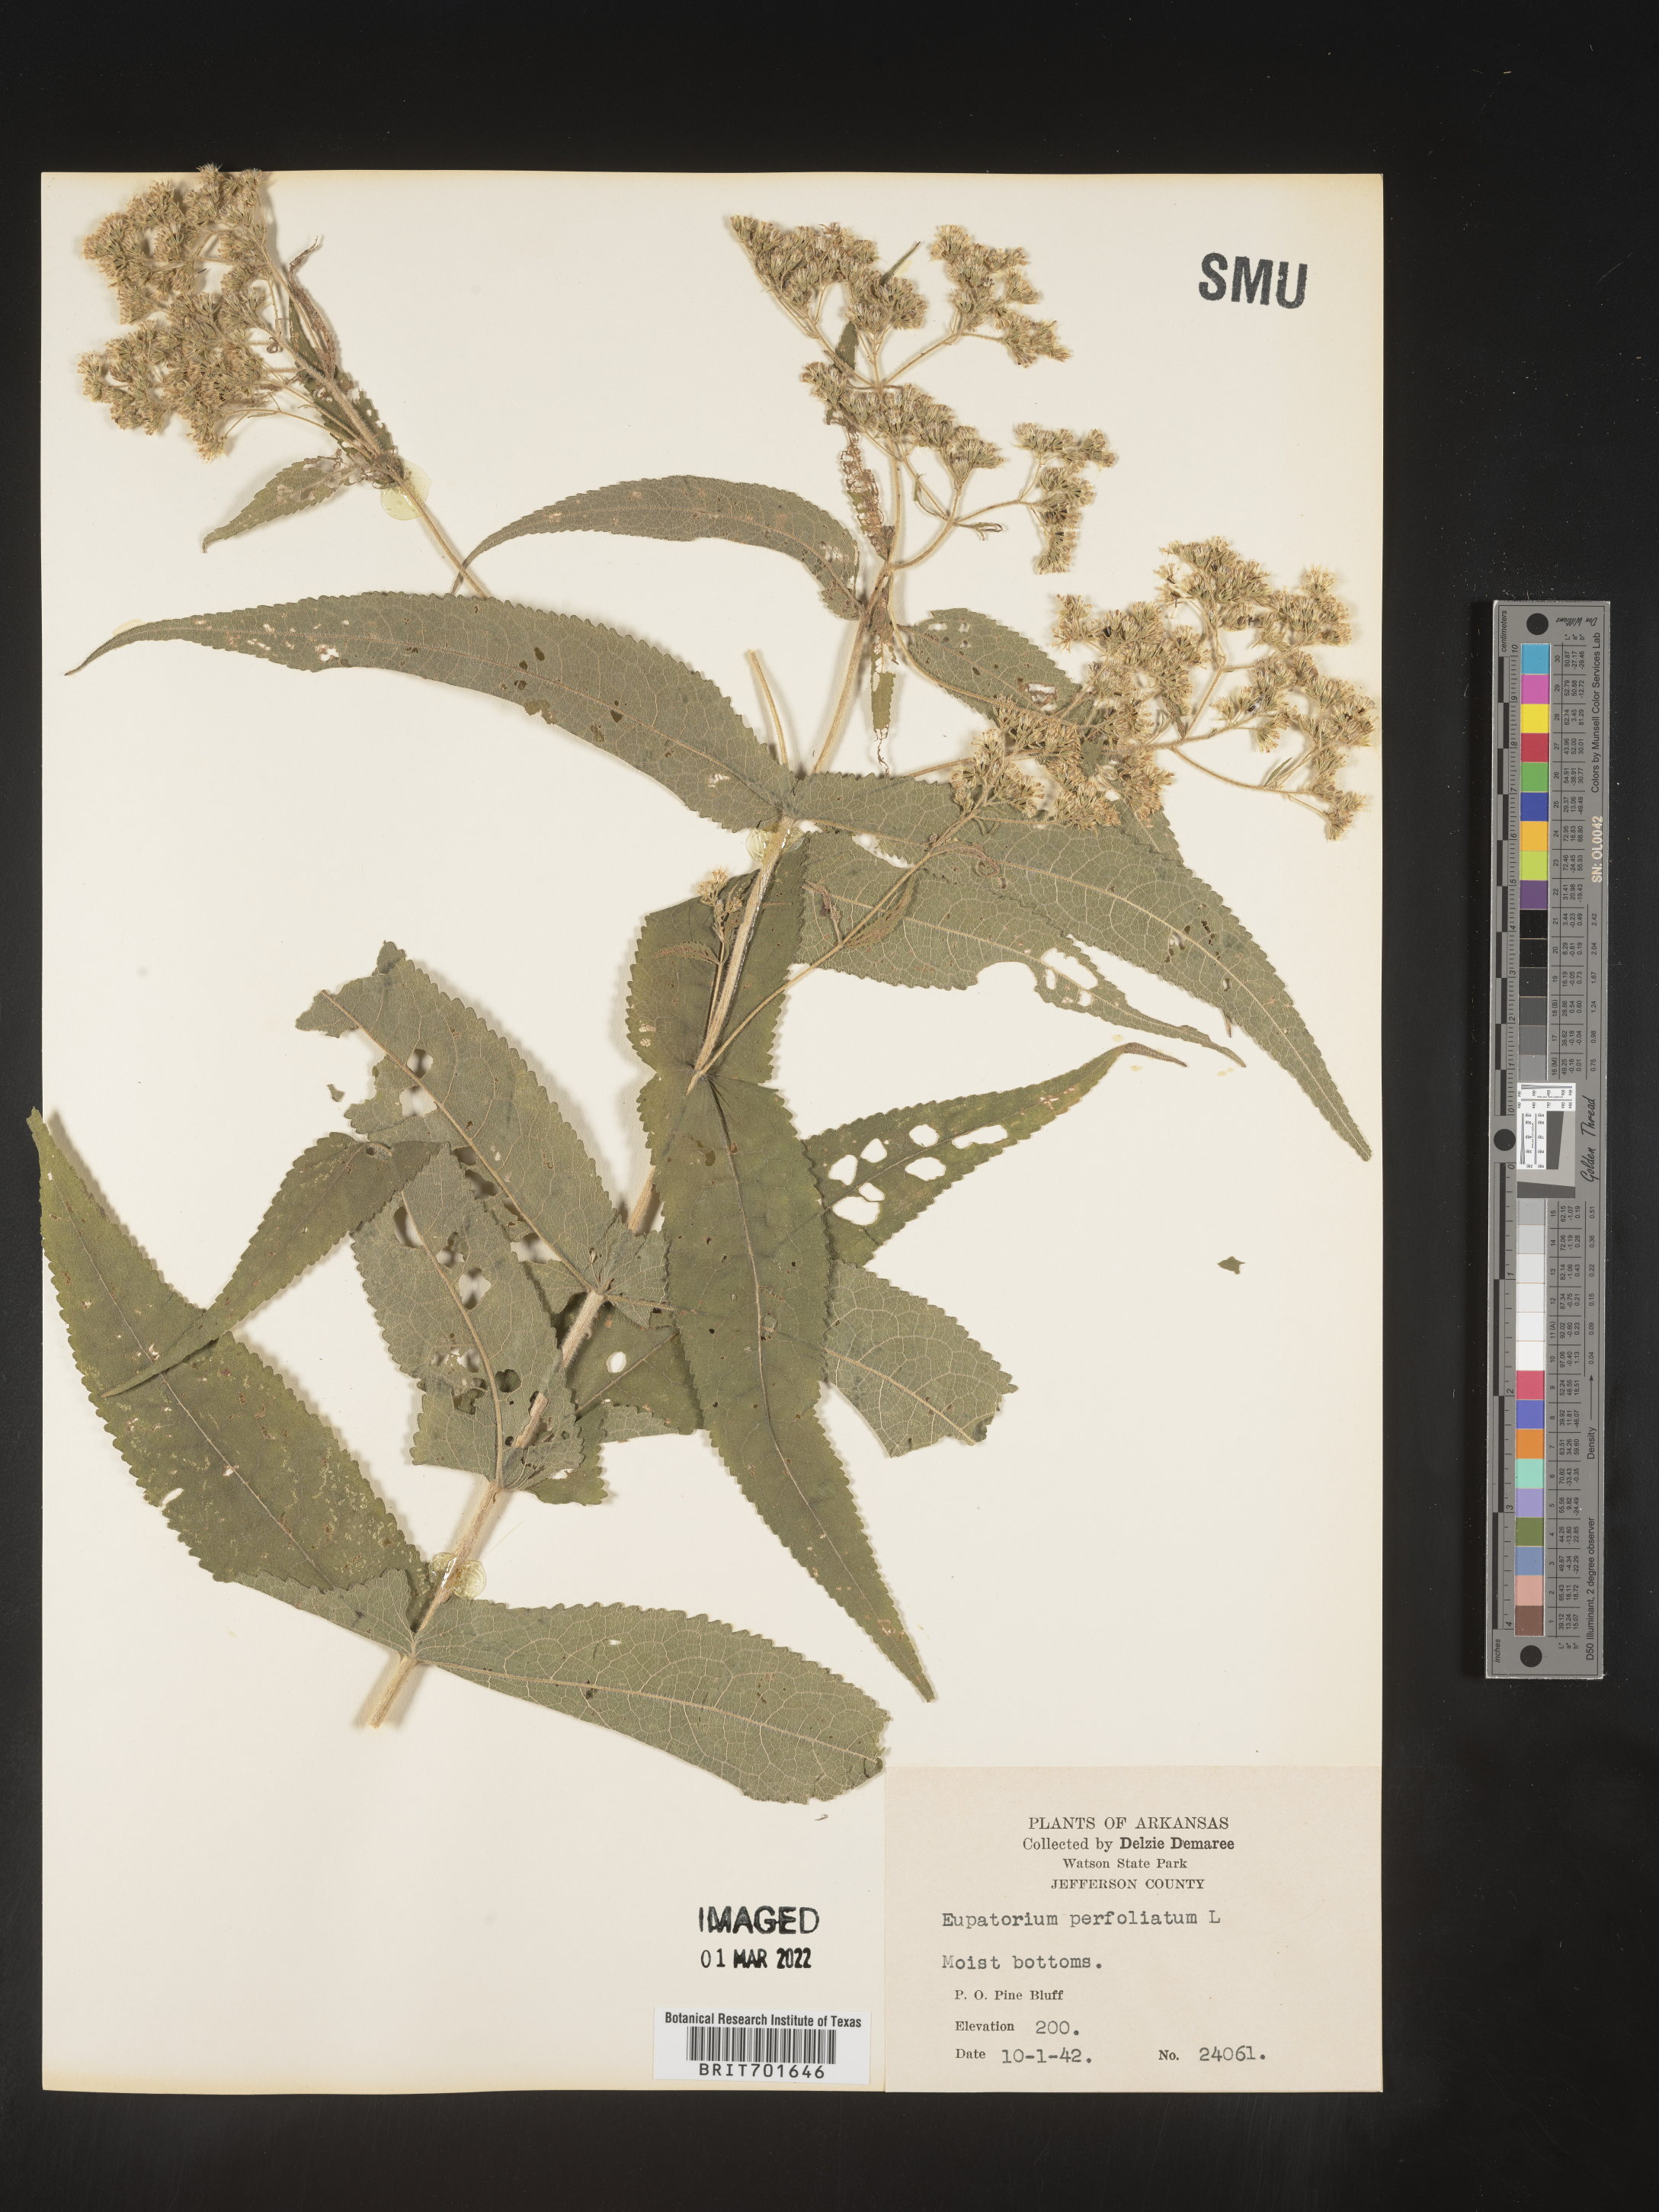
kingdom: Plantae
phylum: Tracheophyta
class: Magnoliopsida
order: Asterales
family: Asteraceae
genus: Eupatorium
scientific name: Eupatorium perfoliatum
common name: Boneset
